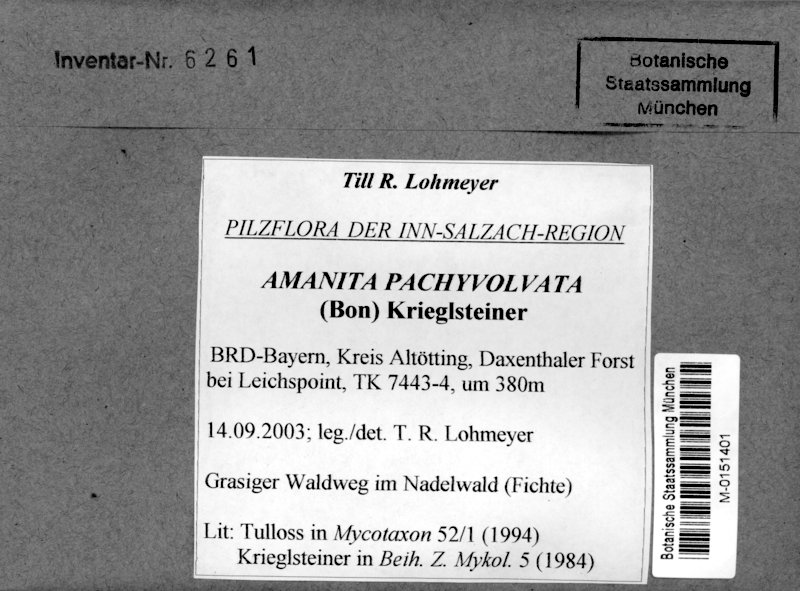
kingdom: Fungi
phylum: Basidiomycota
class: Agaricomycetes
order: Agaricales
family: Amanitaceae
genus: Amanita
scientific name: Amanita pachyvolvata
